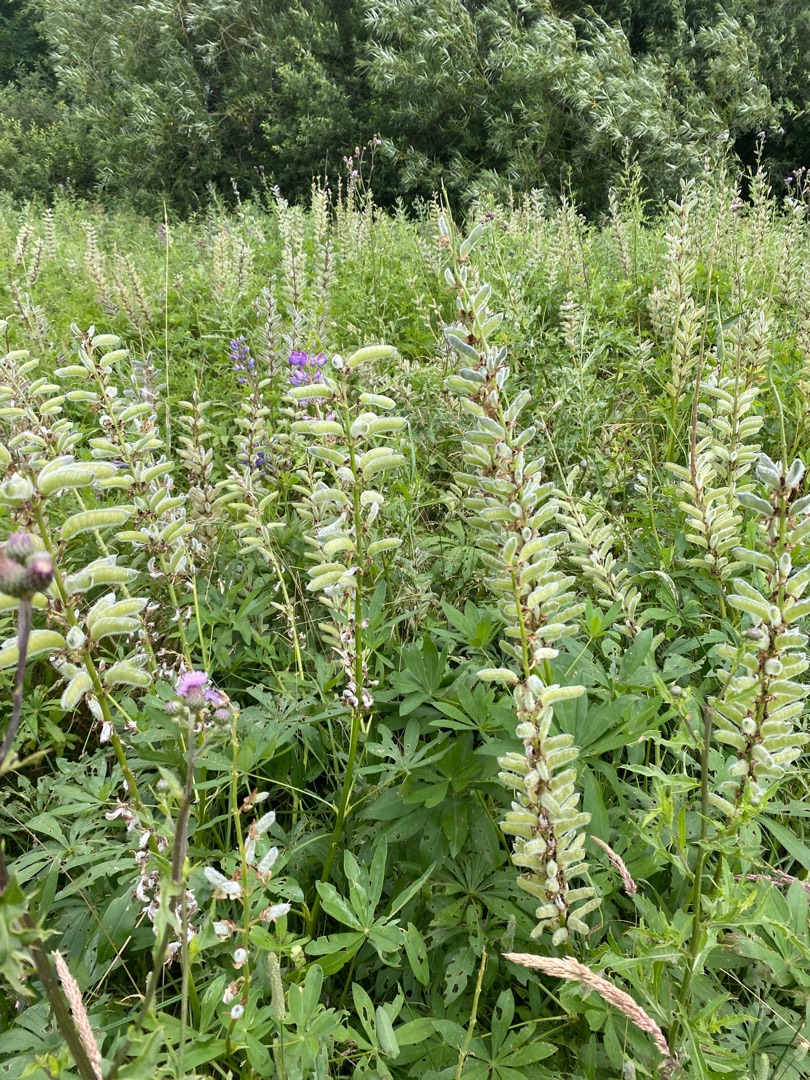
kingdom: Plantae
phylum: Tracheophyta
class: Magnoliopsida
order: Fabales
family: Fabaceae
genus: Lupinus
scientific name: Lupinus polyphyllus
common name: Mangebladet lupin
